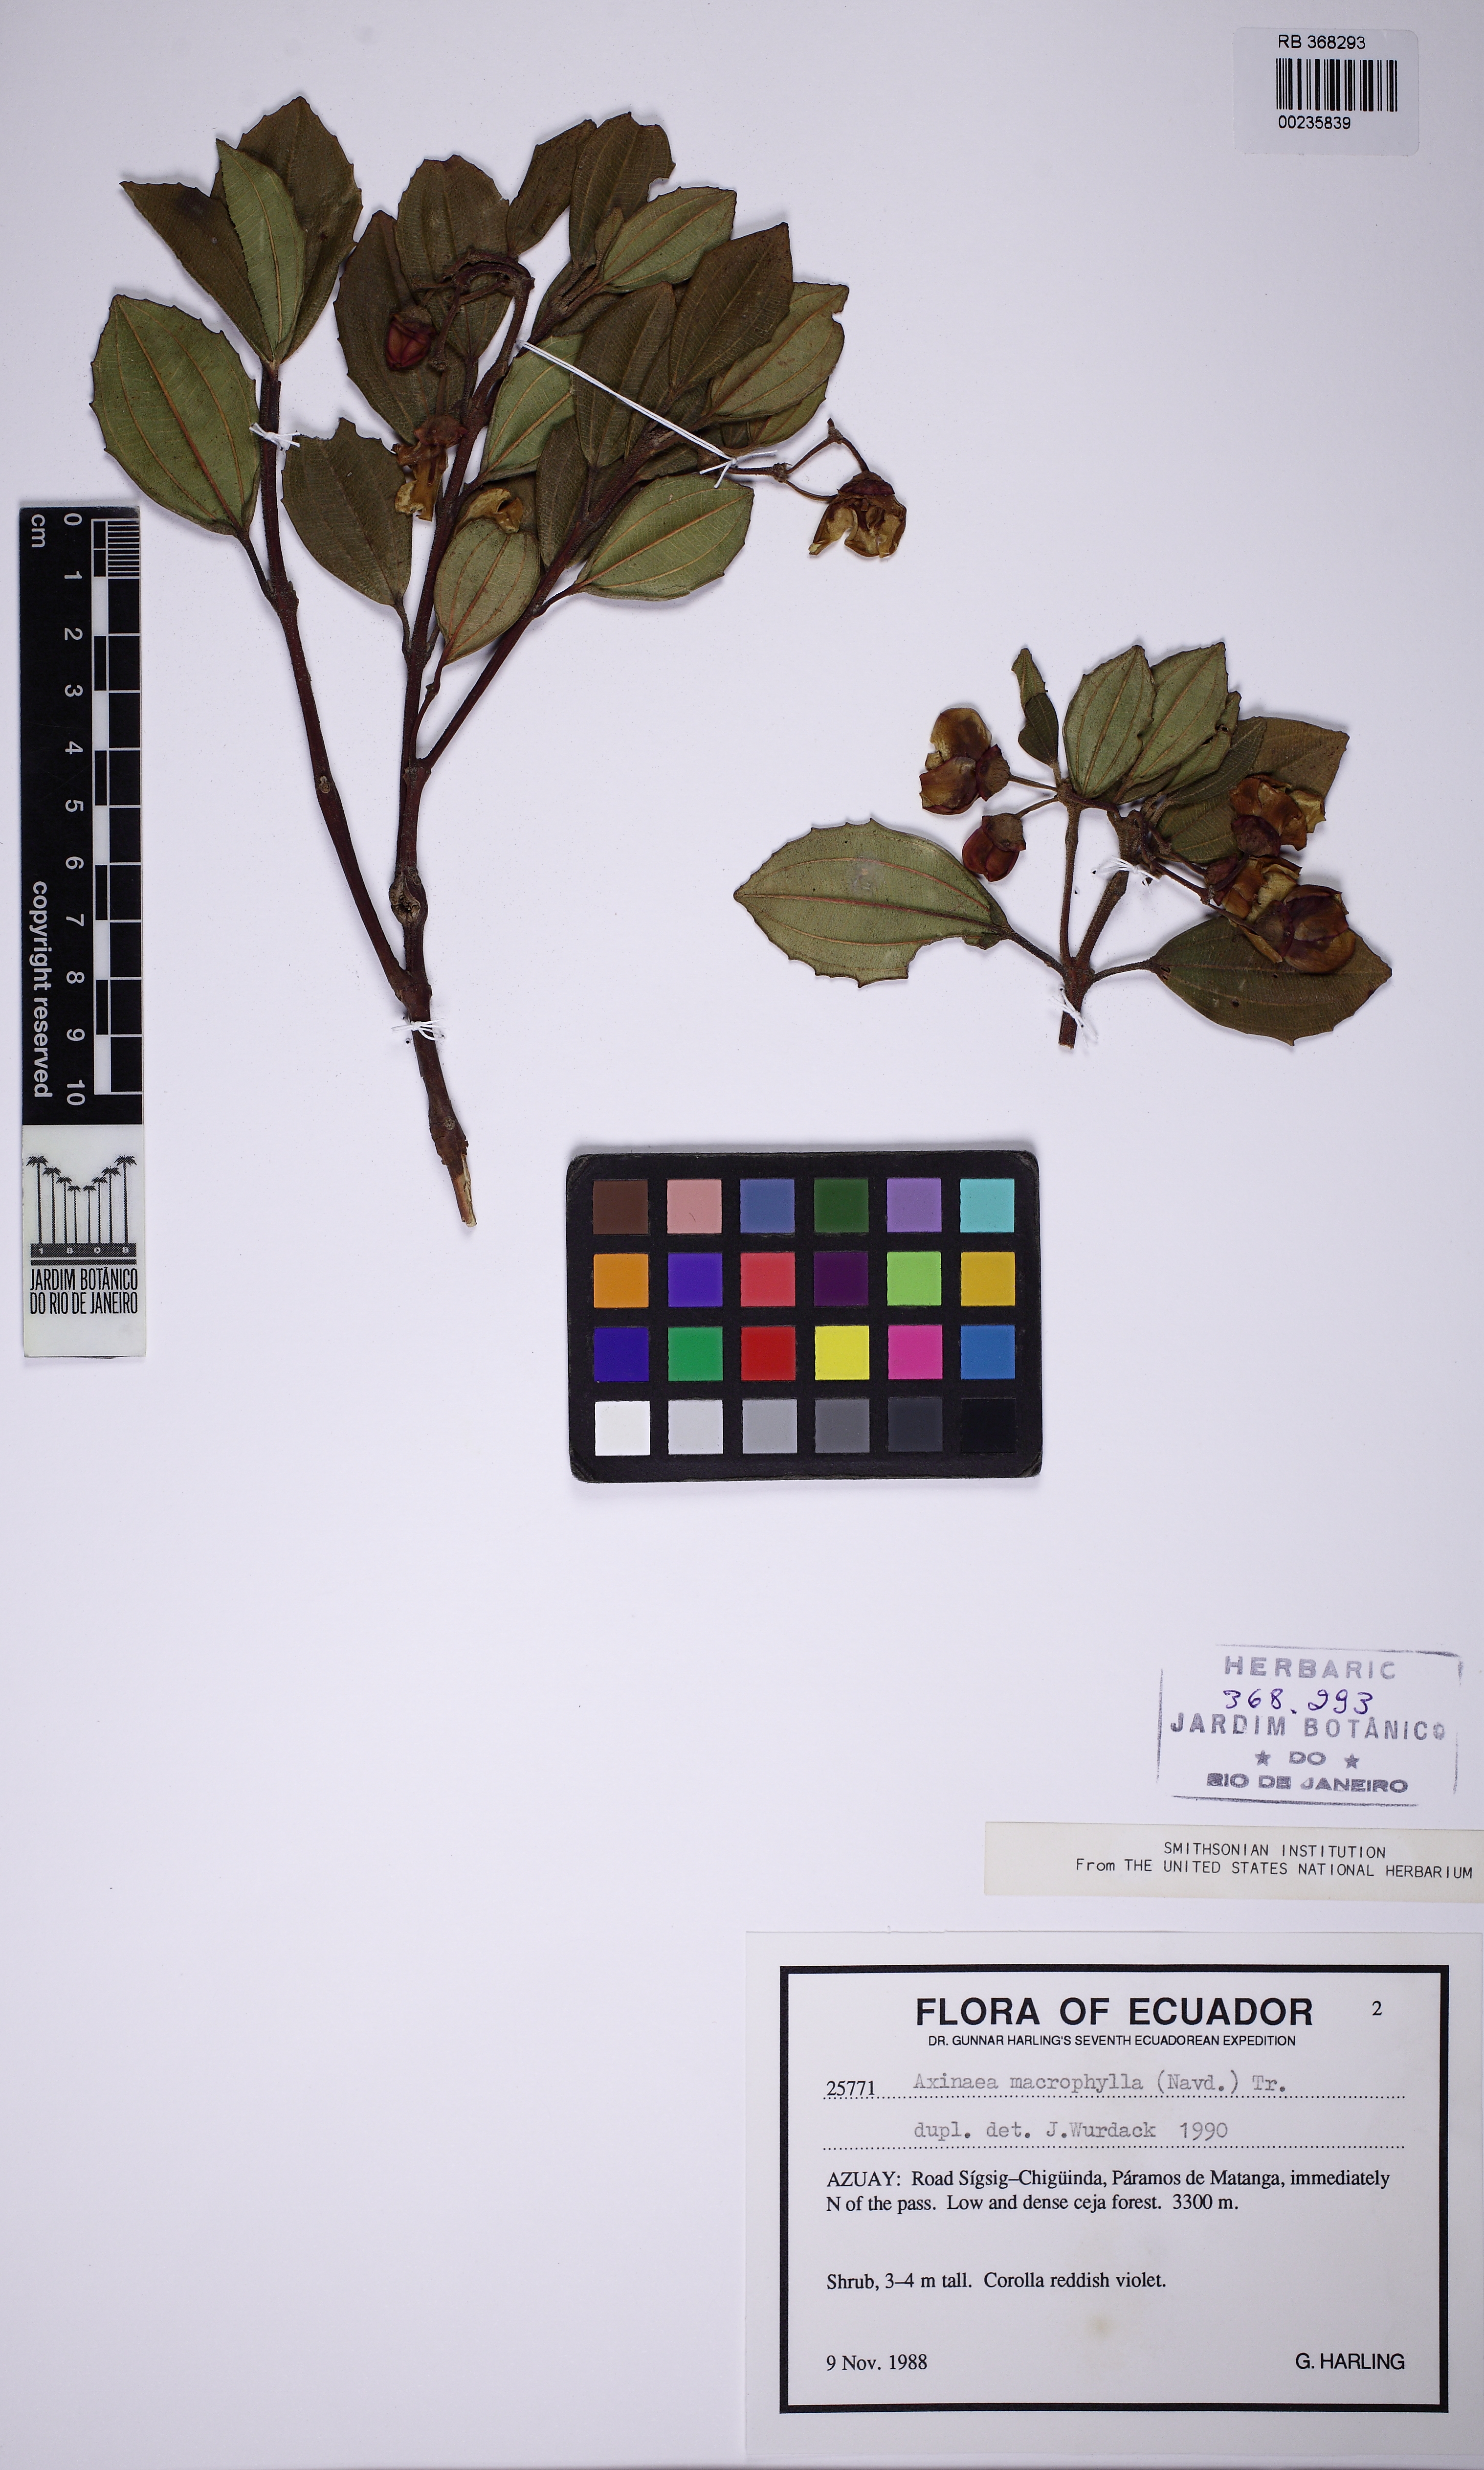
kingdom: Plantae
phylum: Tracheophyta
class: Magnoliopsida
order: Myrtales
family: Melastomataceae
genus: Axinaea
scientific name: Axinaea macrophylla
